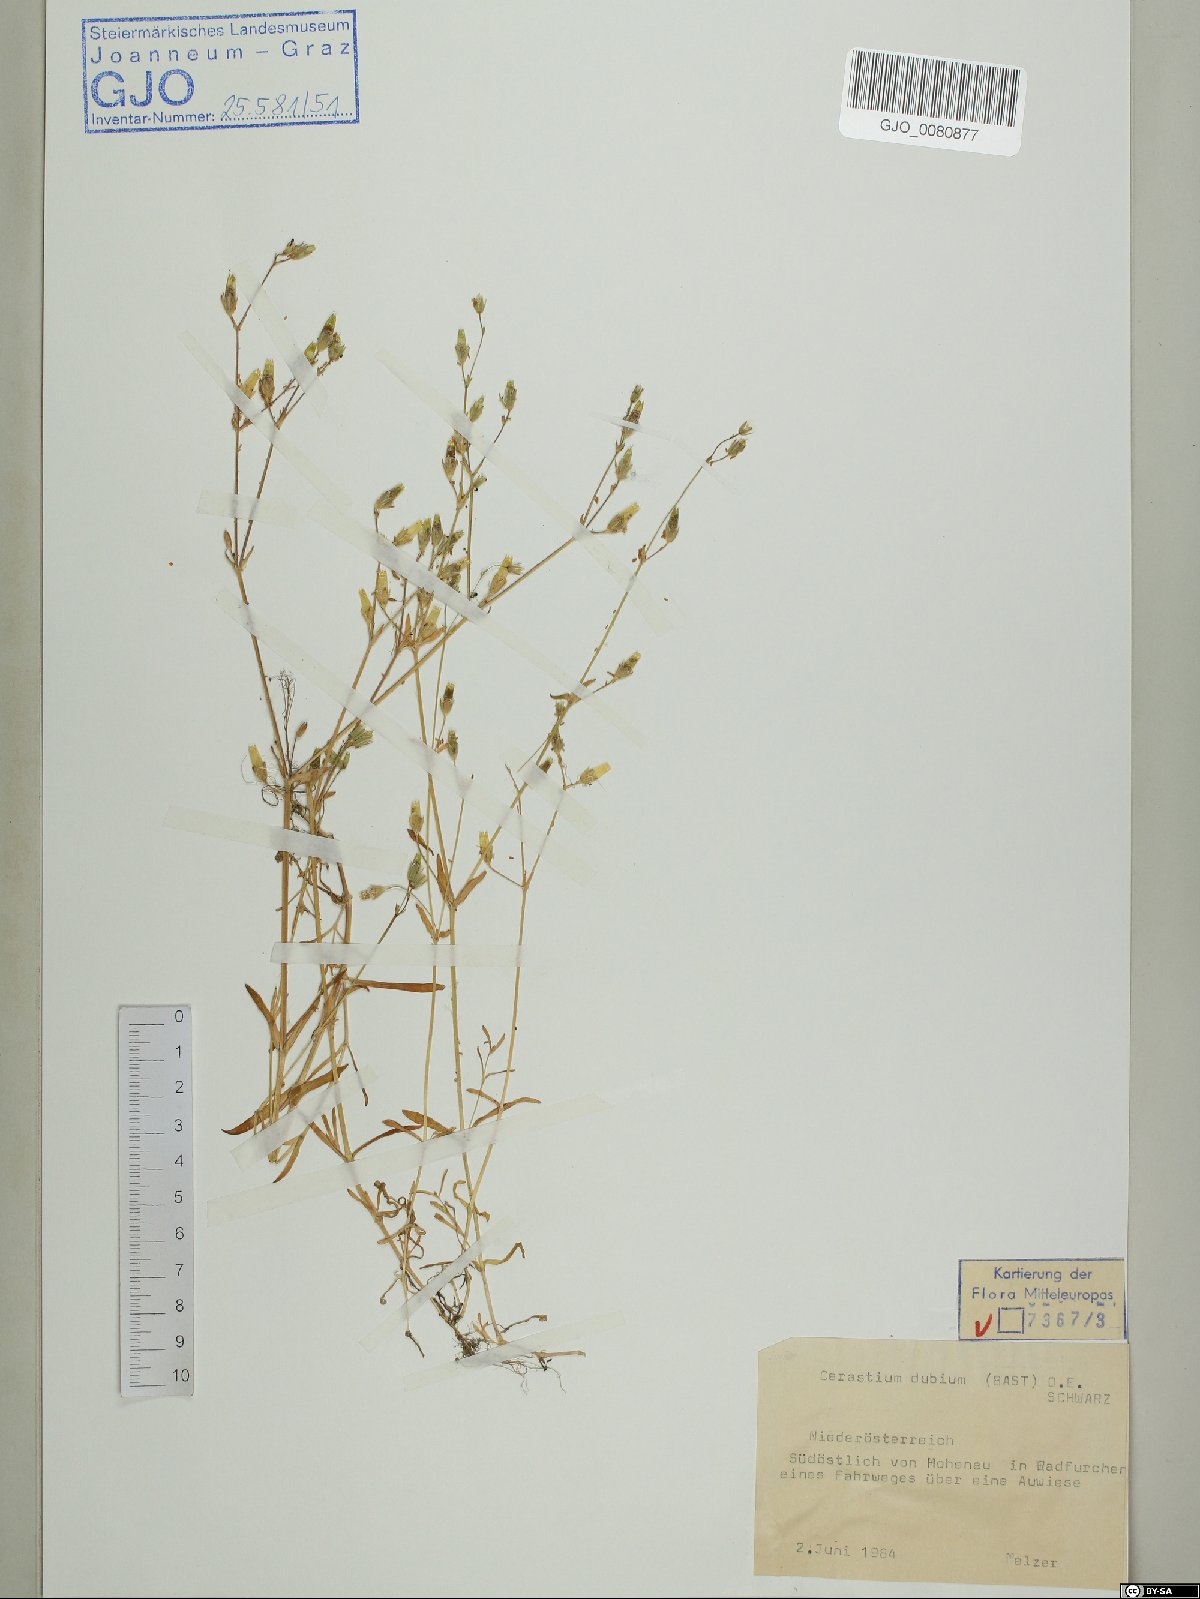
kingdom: Plantae
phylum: Tracheophyta
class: Magnoliopsida
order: Caryophyllales
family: Caryophyllaceae
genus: Dichodon
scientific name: Dichodon viscidum
